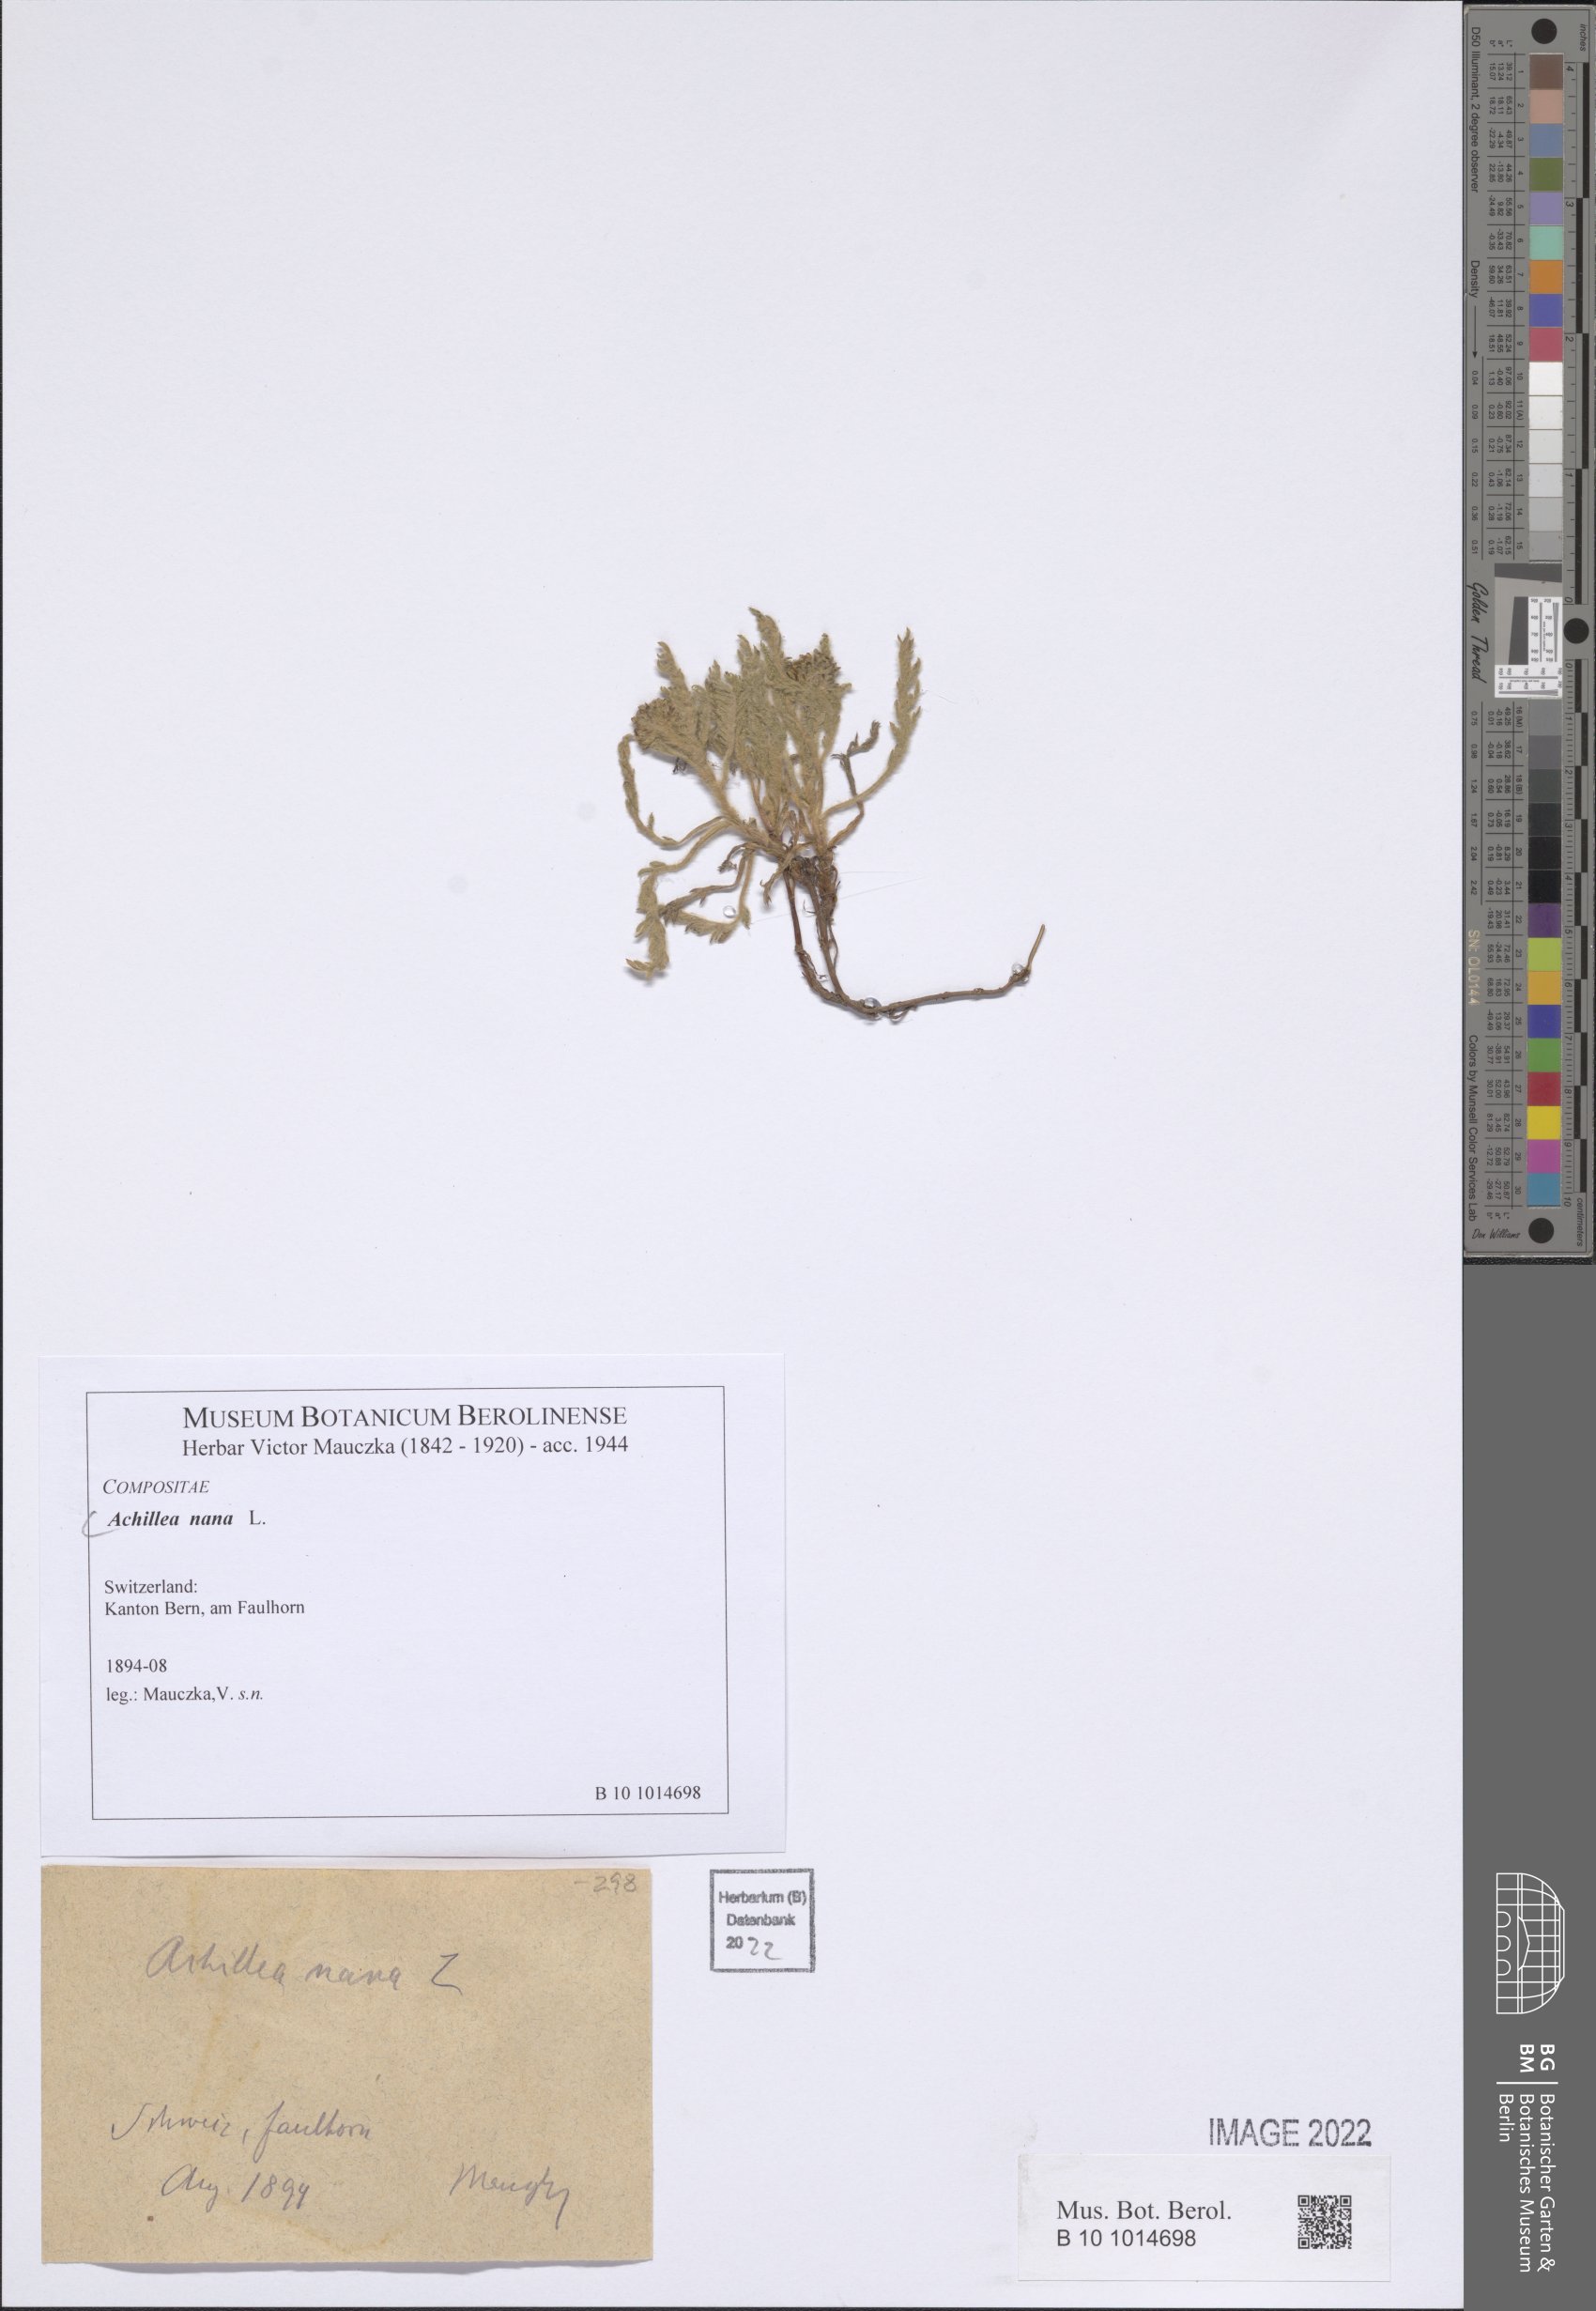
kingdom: Plantae
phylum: Tracheophyta
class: Magnoliopsida
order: Asterales
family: Asteraceae
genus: Achillea
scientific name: Achillea nana
